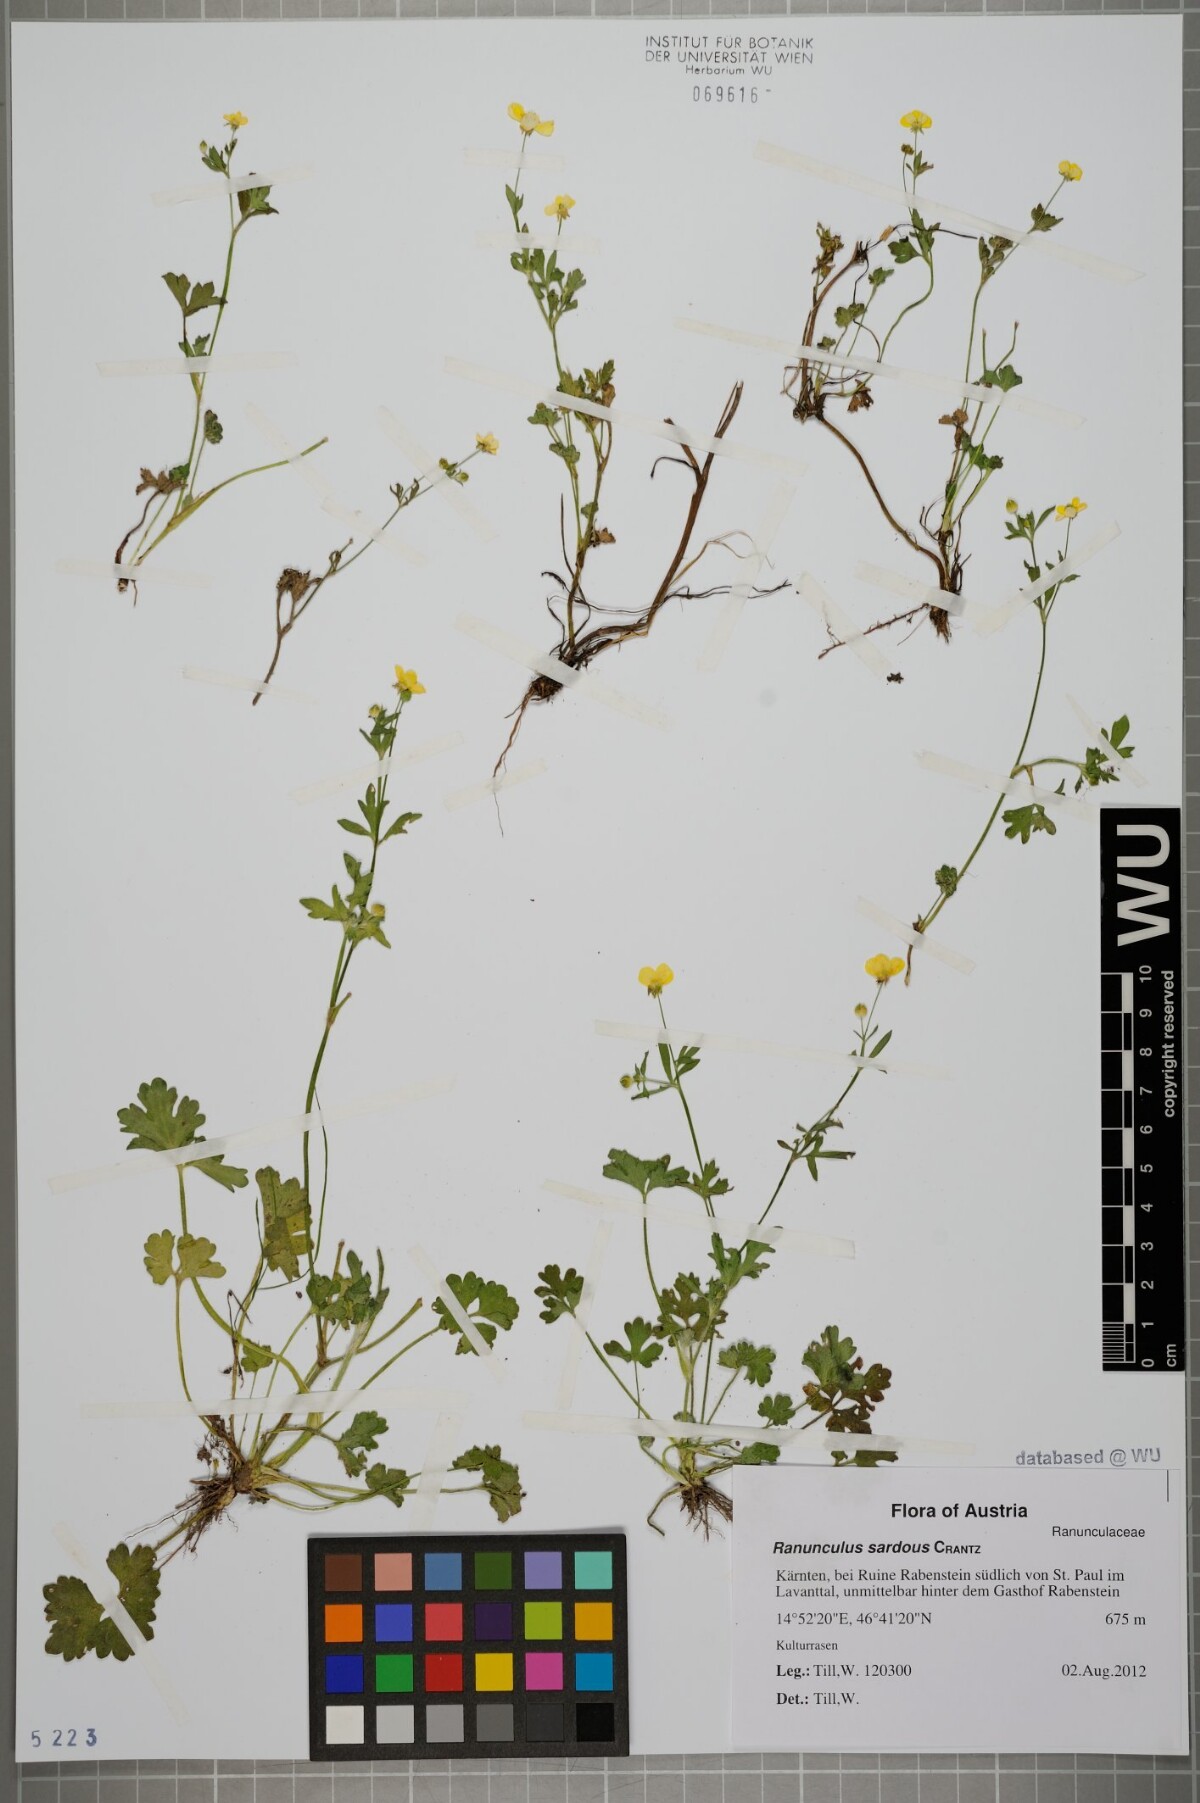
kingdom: Plantae
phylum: Tracheophyta
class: Magnoliopsida
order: Ranunculales
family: Ranunculaceae
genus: Ranunculus
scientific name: Ranunculus sardous
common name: Hairy buttercup
